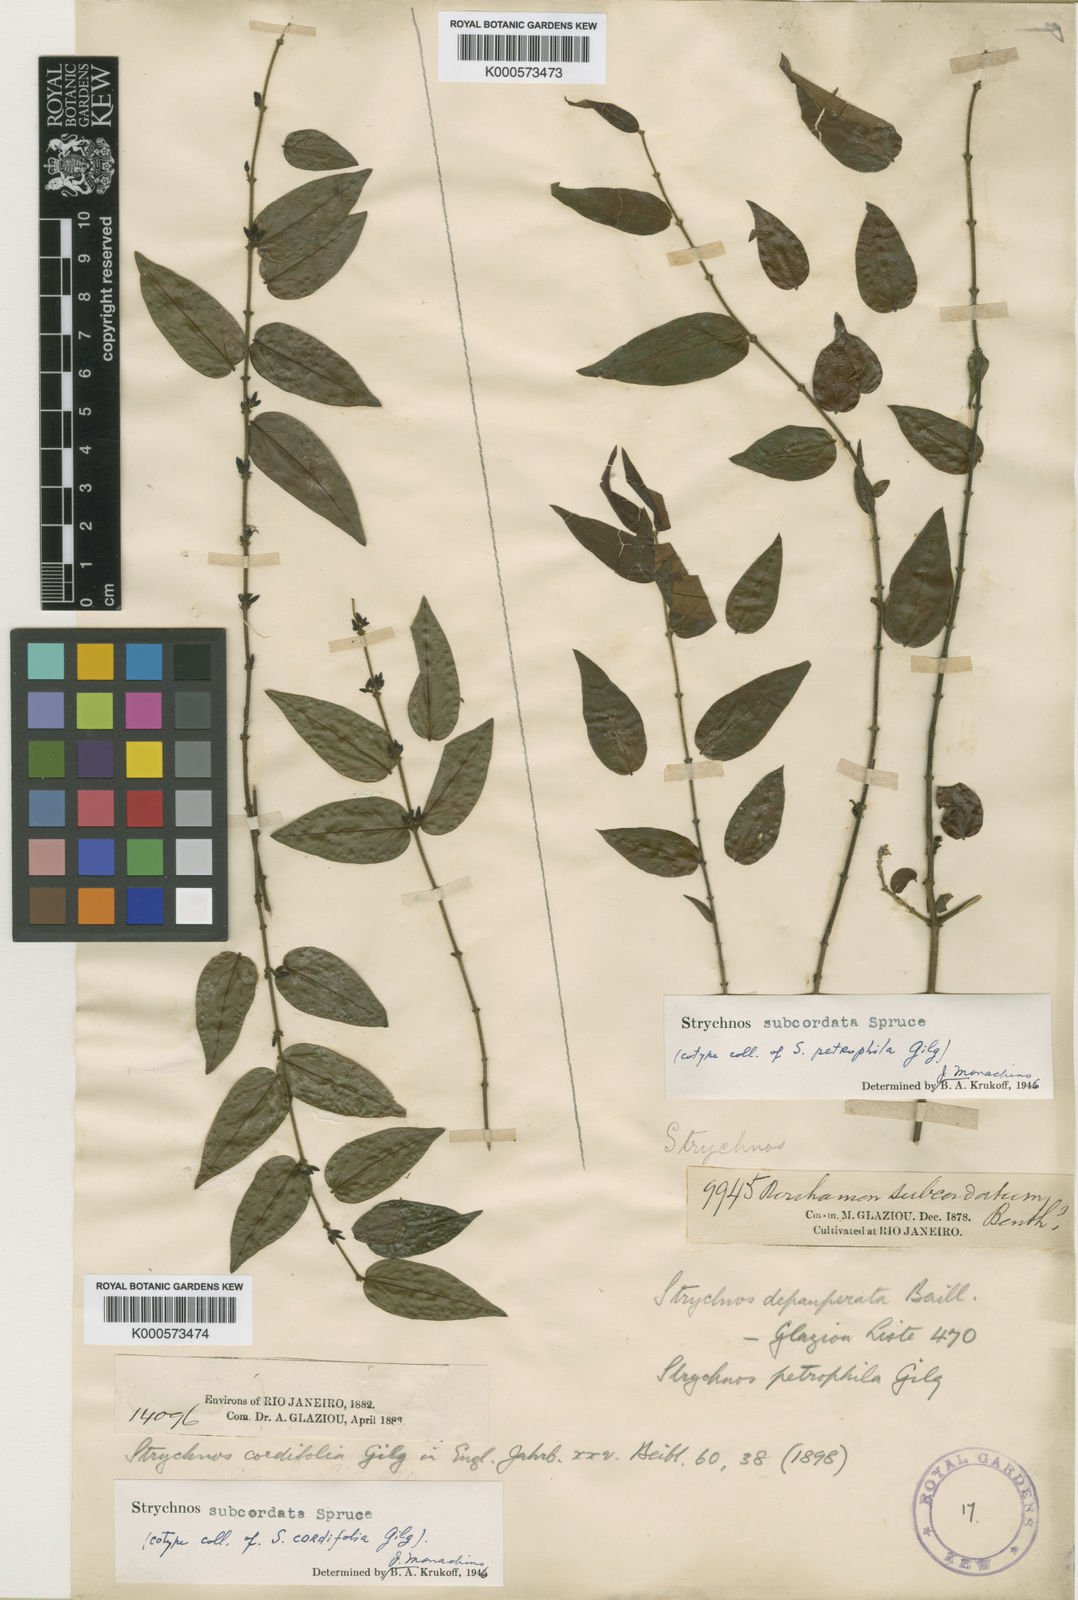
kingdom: Plantae
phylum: Tracheophyta
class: Magnoliopsida
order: Gentianales
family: Loganiaceae
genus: Strychnos
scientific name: Strychnos subcordata
